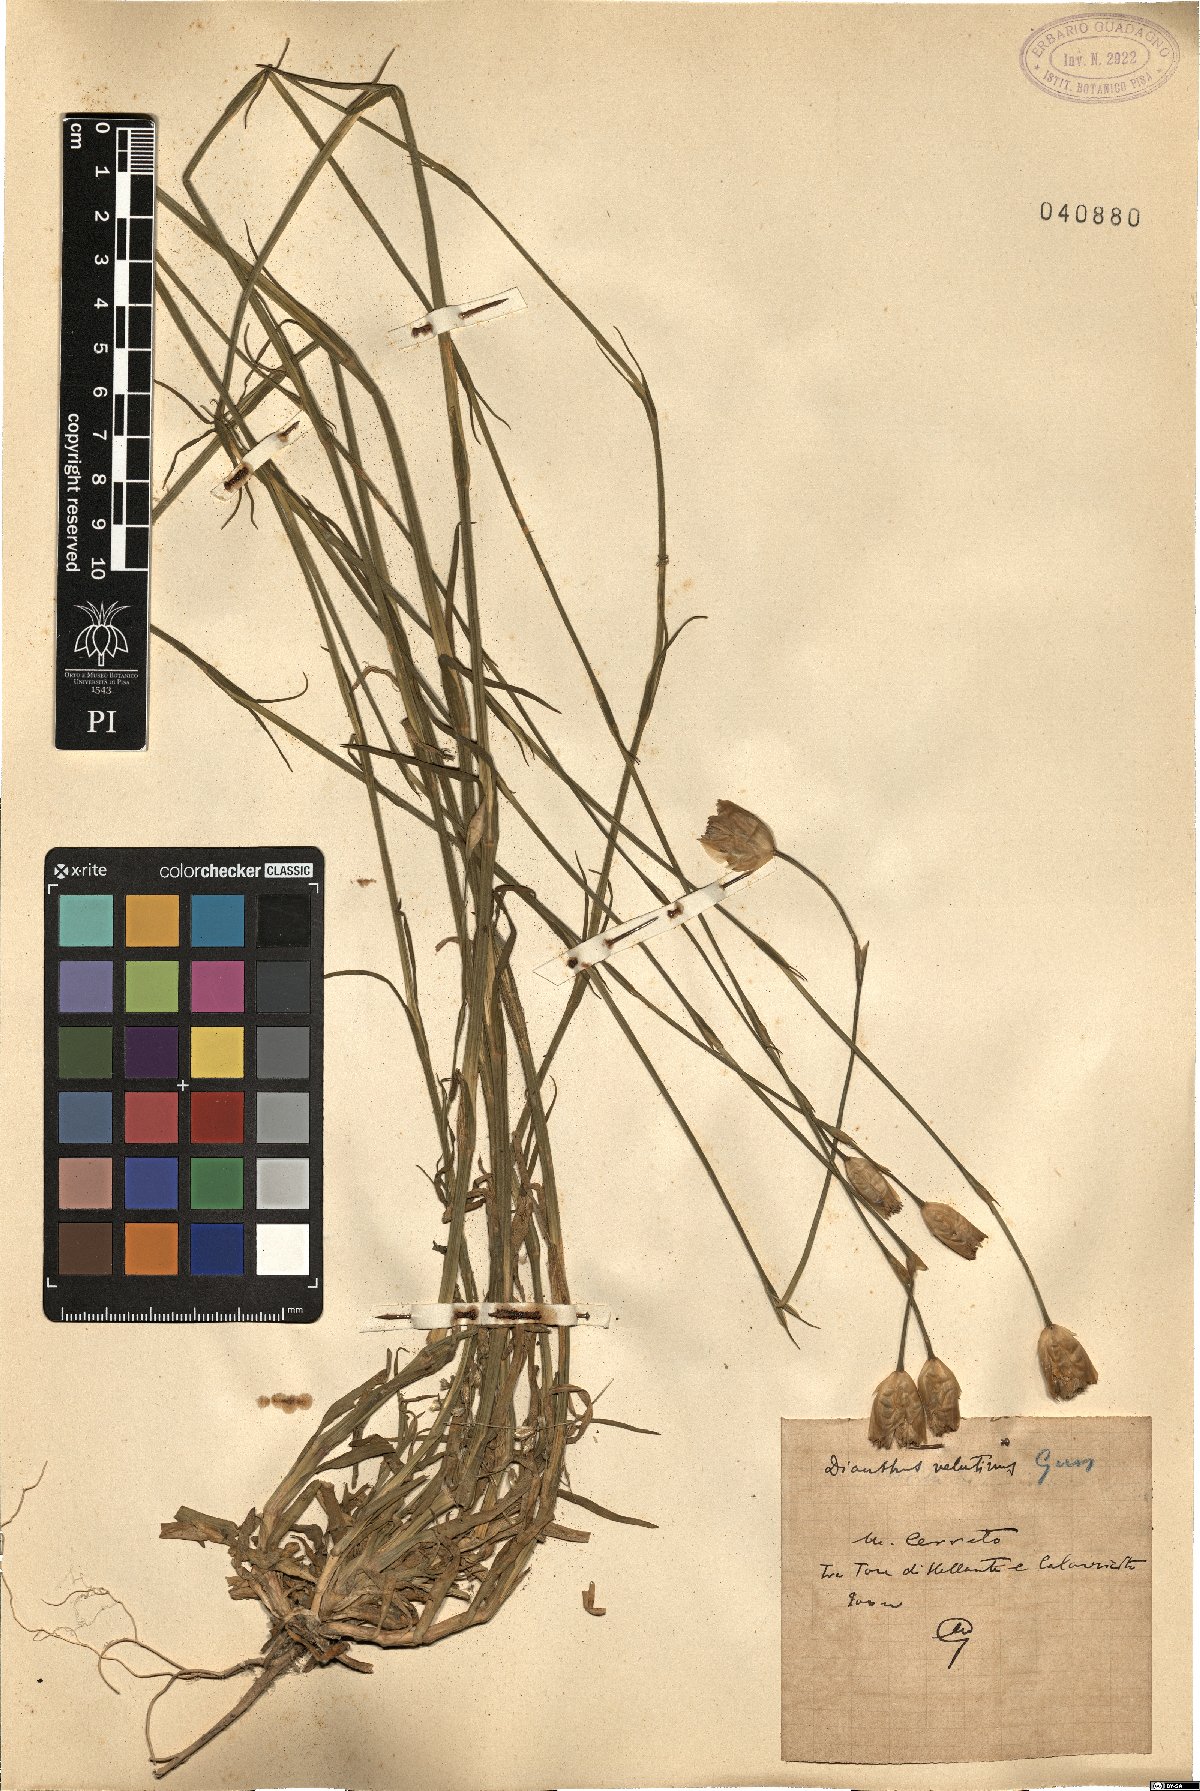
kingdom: Plantae
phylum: Tracheophyta
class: Magnoliopsida
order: Caryophyllales
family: Caryophyllaceae
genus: Petrorhagia
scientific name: Petrorhagia dubia
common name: Hairypink
